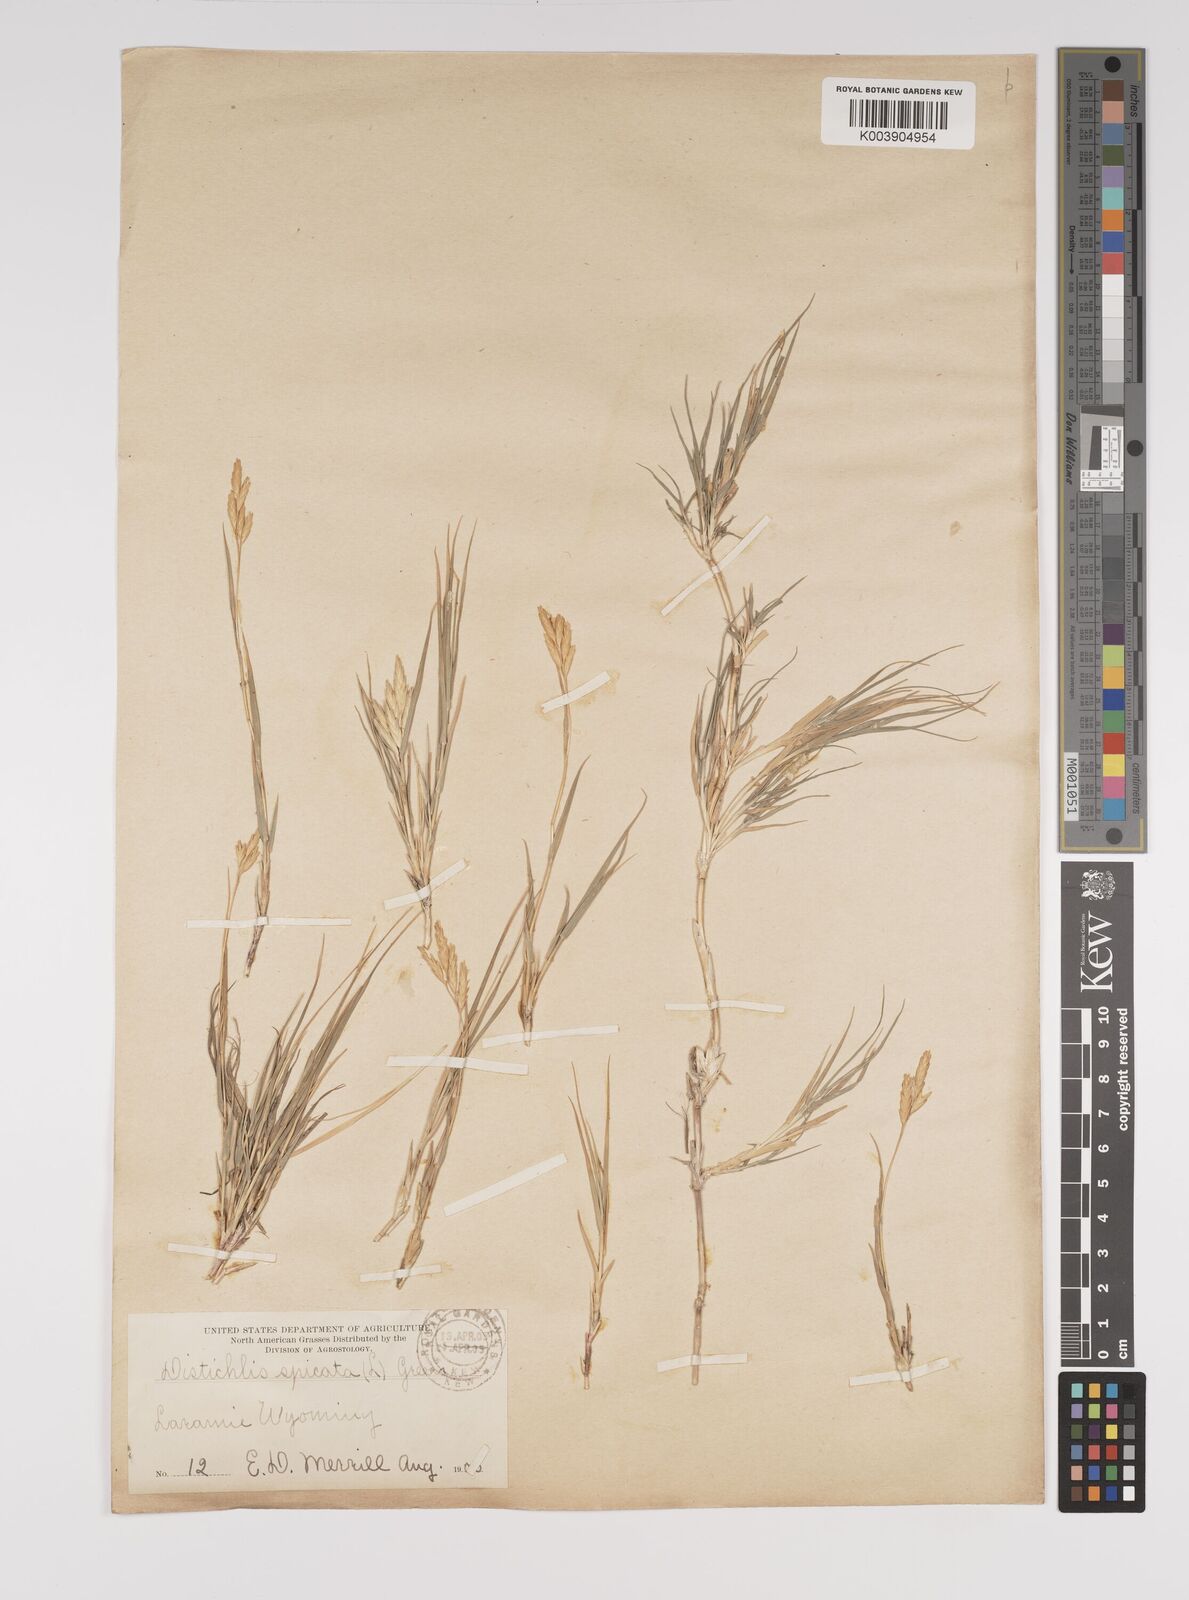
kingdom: Plantae
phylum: Tracheophyta
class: Liliopsida
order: Poales
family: Poaceae
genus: Distichlis
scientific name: Distichlis spicata
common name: Saltgrass
